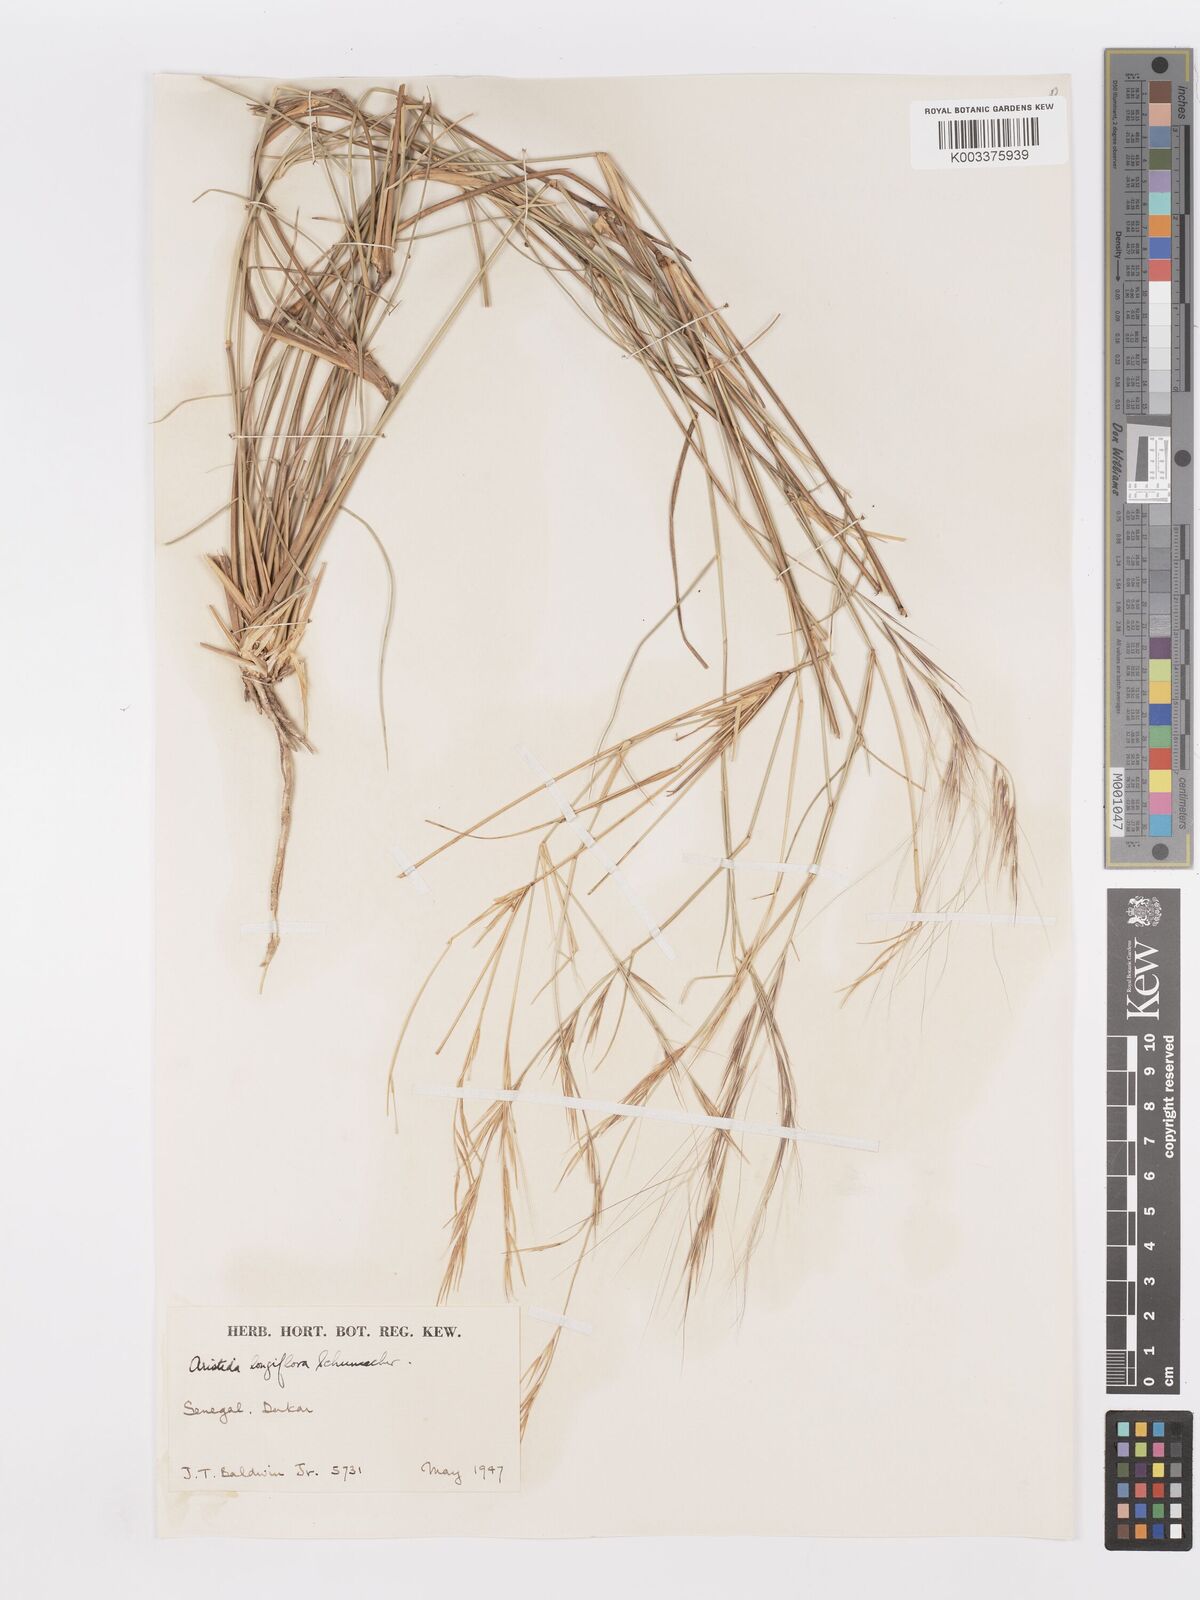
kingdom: Plantae
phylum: Tracheophyta
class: Liliopsida
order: Poales
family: Poaceae
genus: Aristida
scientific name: Aristida sieberiana
